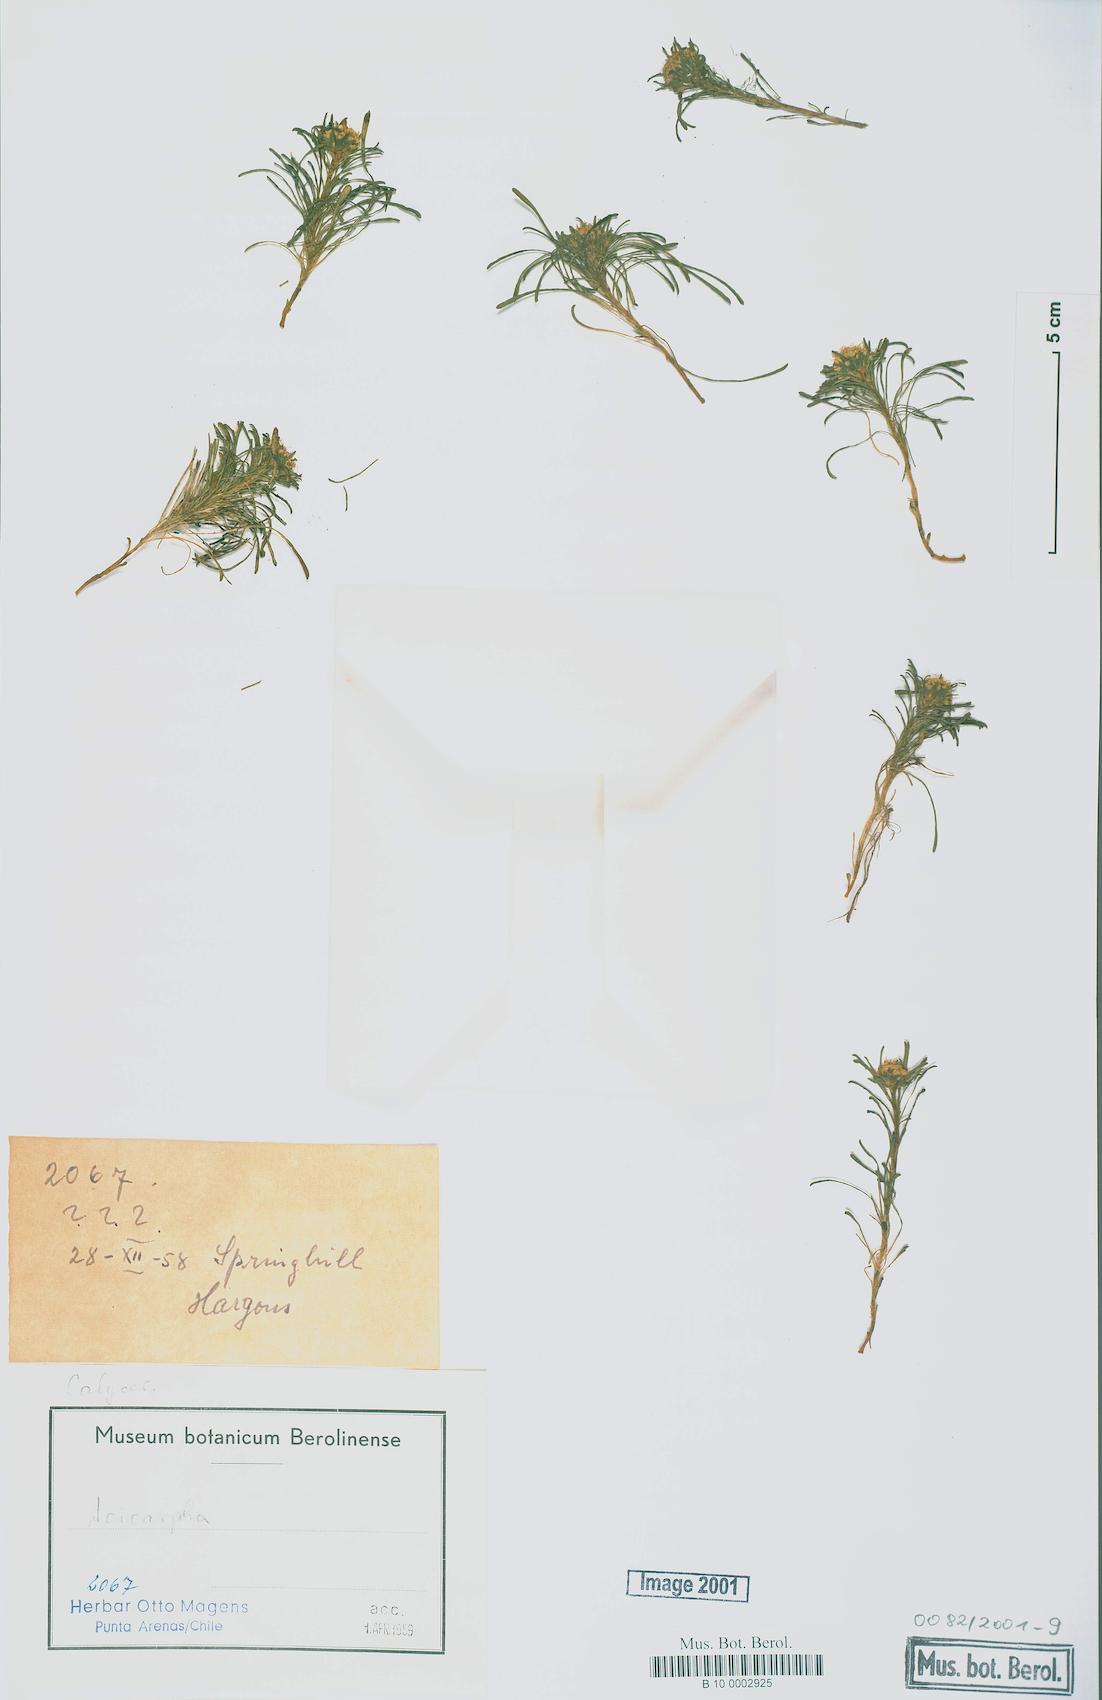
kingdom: Plantae
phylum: Tracheophyta
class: Magnoliopsida
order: Asterales
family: Calyceraceae
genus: Acicarpha
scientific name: Acicarpha
